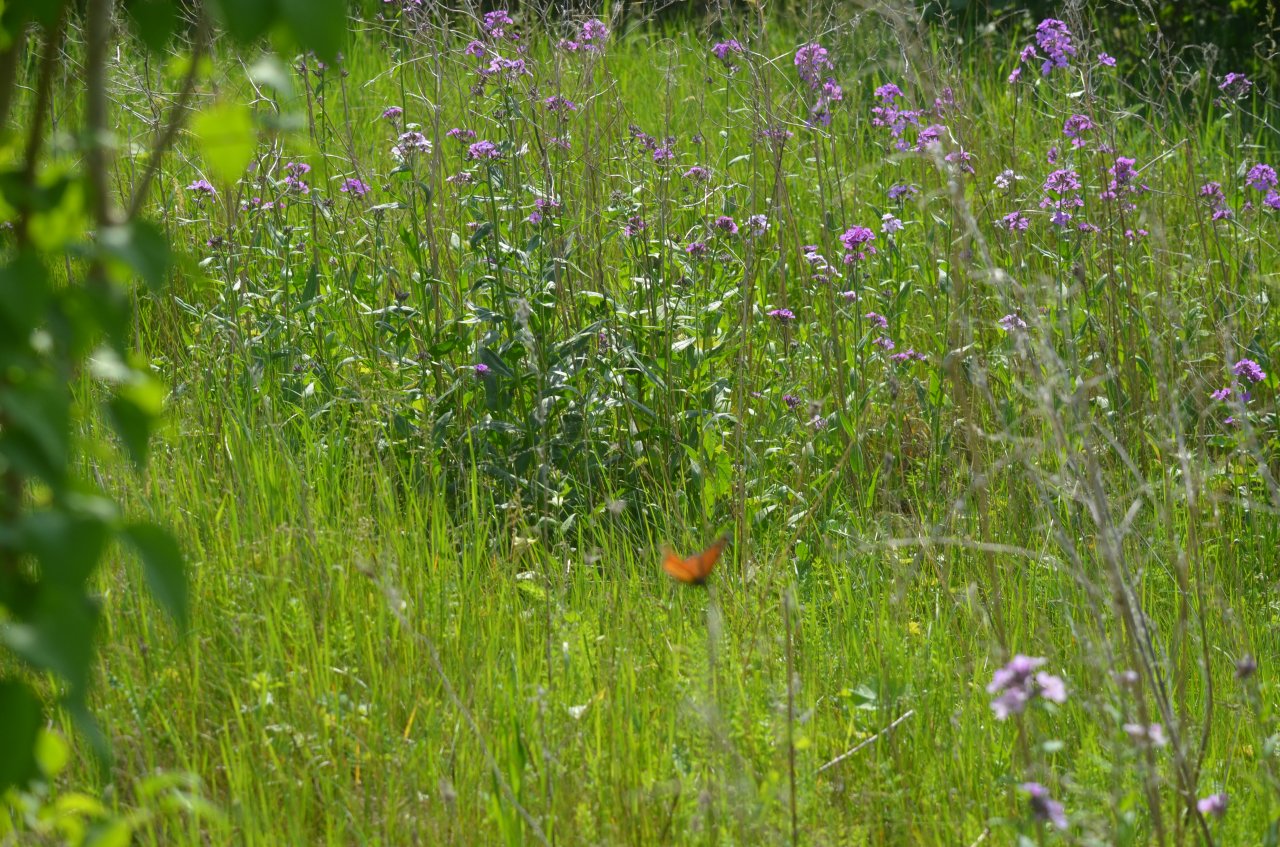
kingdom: Animalia
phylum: Arthropoda
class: Insecta
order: Lepidoptera
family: Nymphalidae
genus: Danaus
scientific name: Danaus plexippus
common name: Monarch
